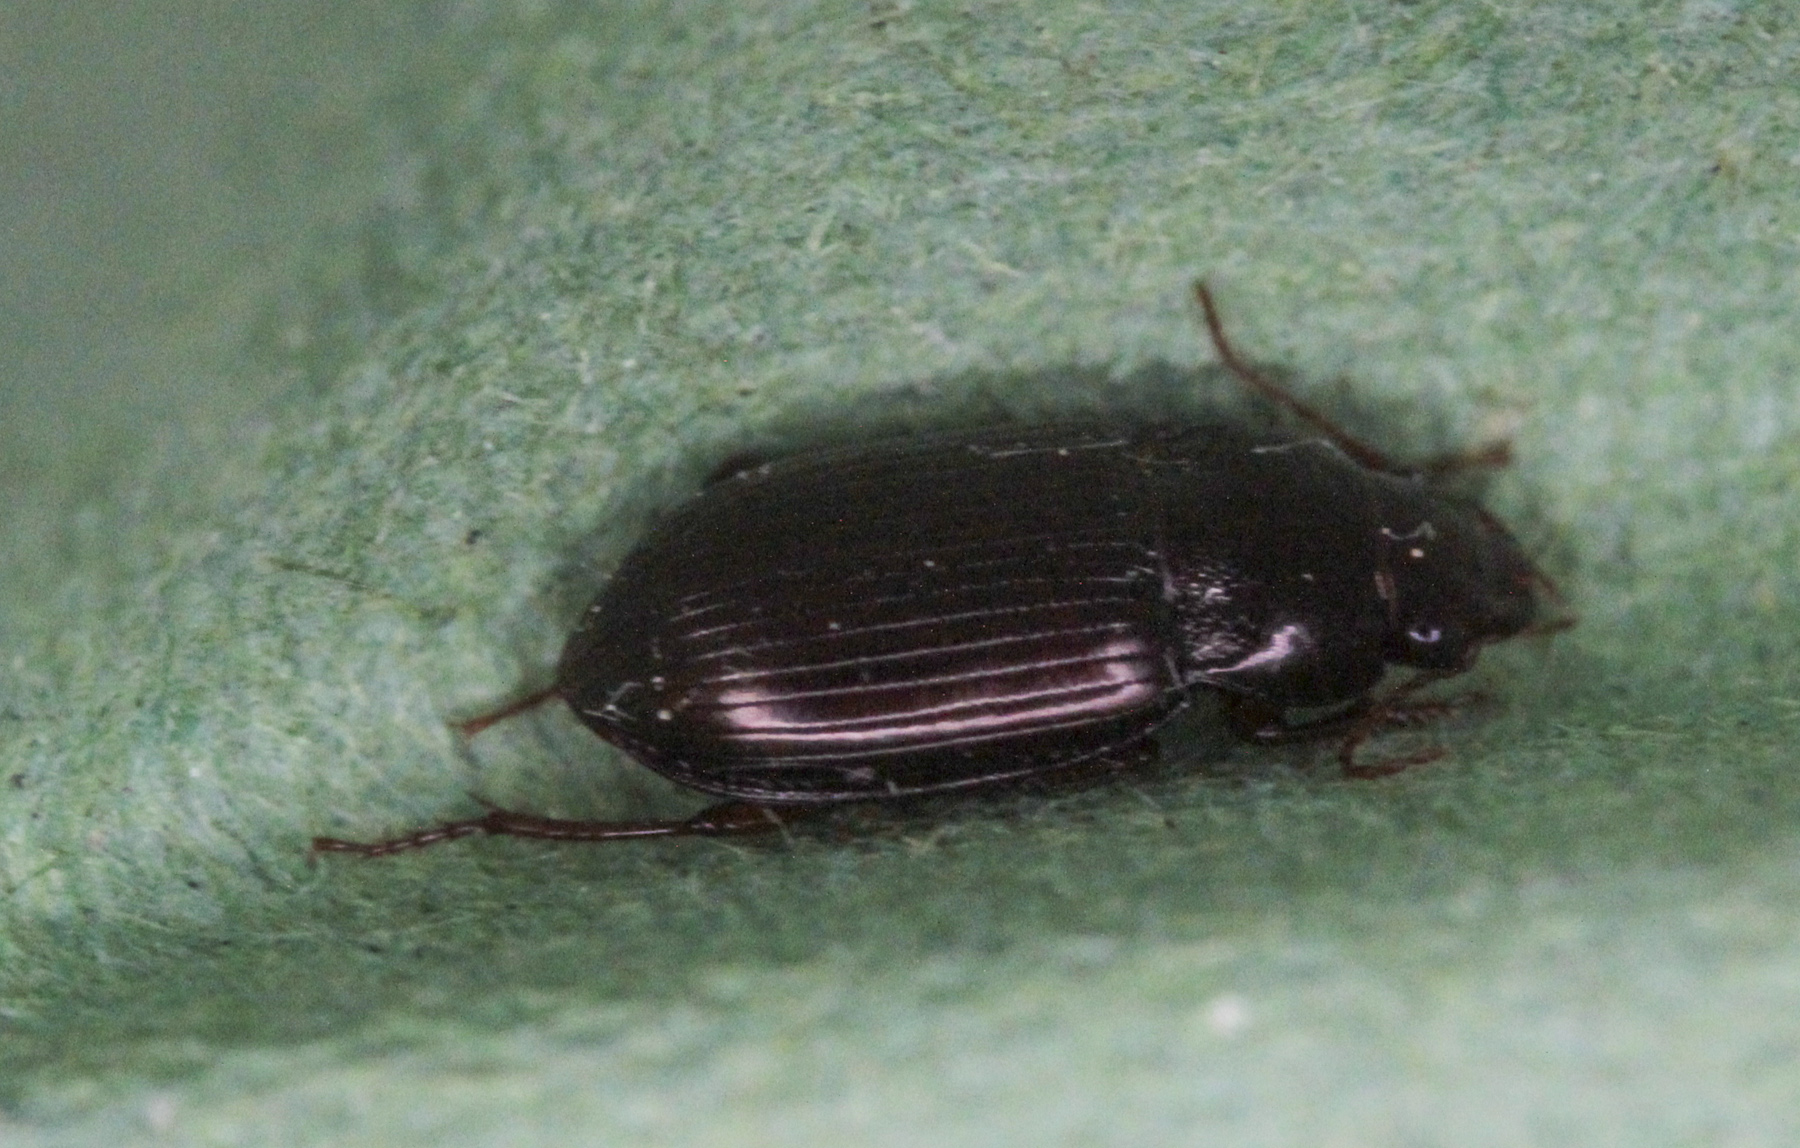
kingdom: Animalia
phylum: Arthropoda
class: Insecta
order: Coleoptera
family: Carabidae
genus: Amara
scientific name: Amara
